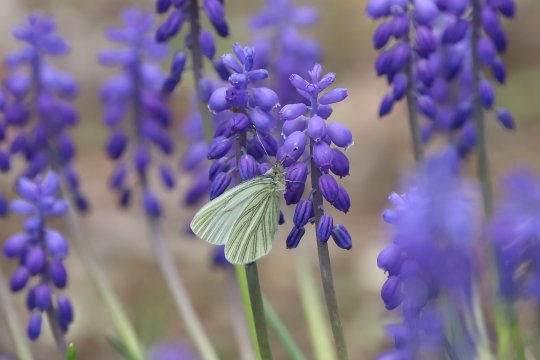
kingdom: Animalia
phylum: Arthropoda
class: Insecta
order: Lepidoptera
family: Pieridae
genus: Pieris
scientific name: Pieris marginalis
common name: Margined White
